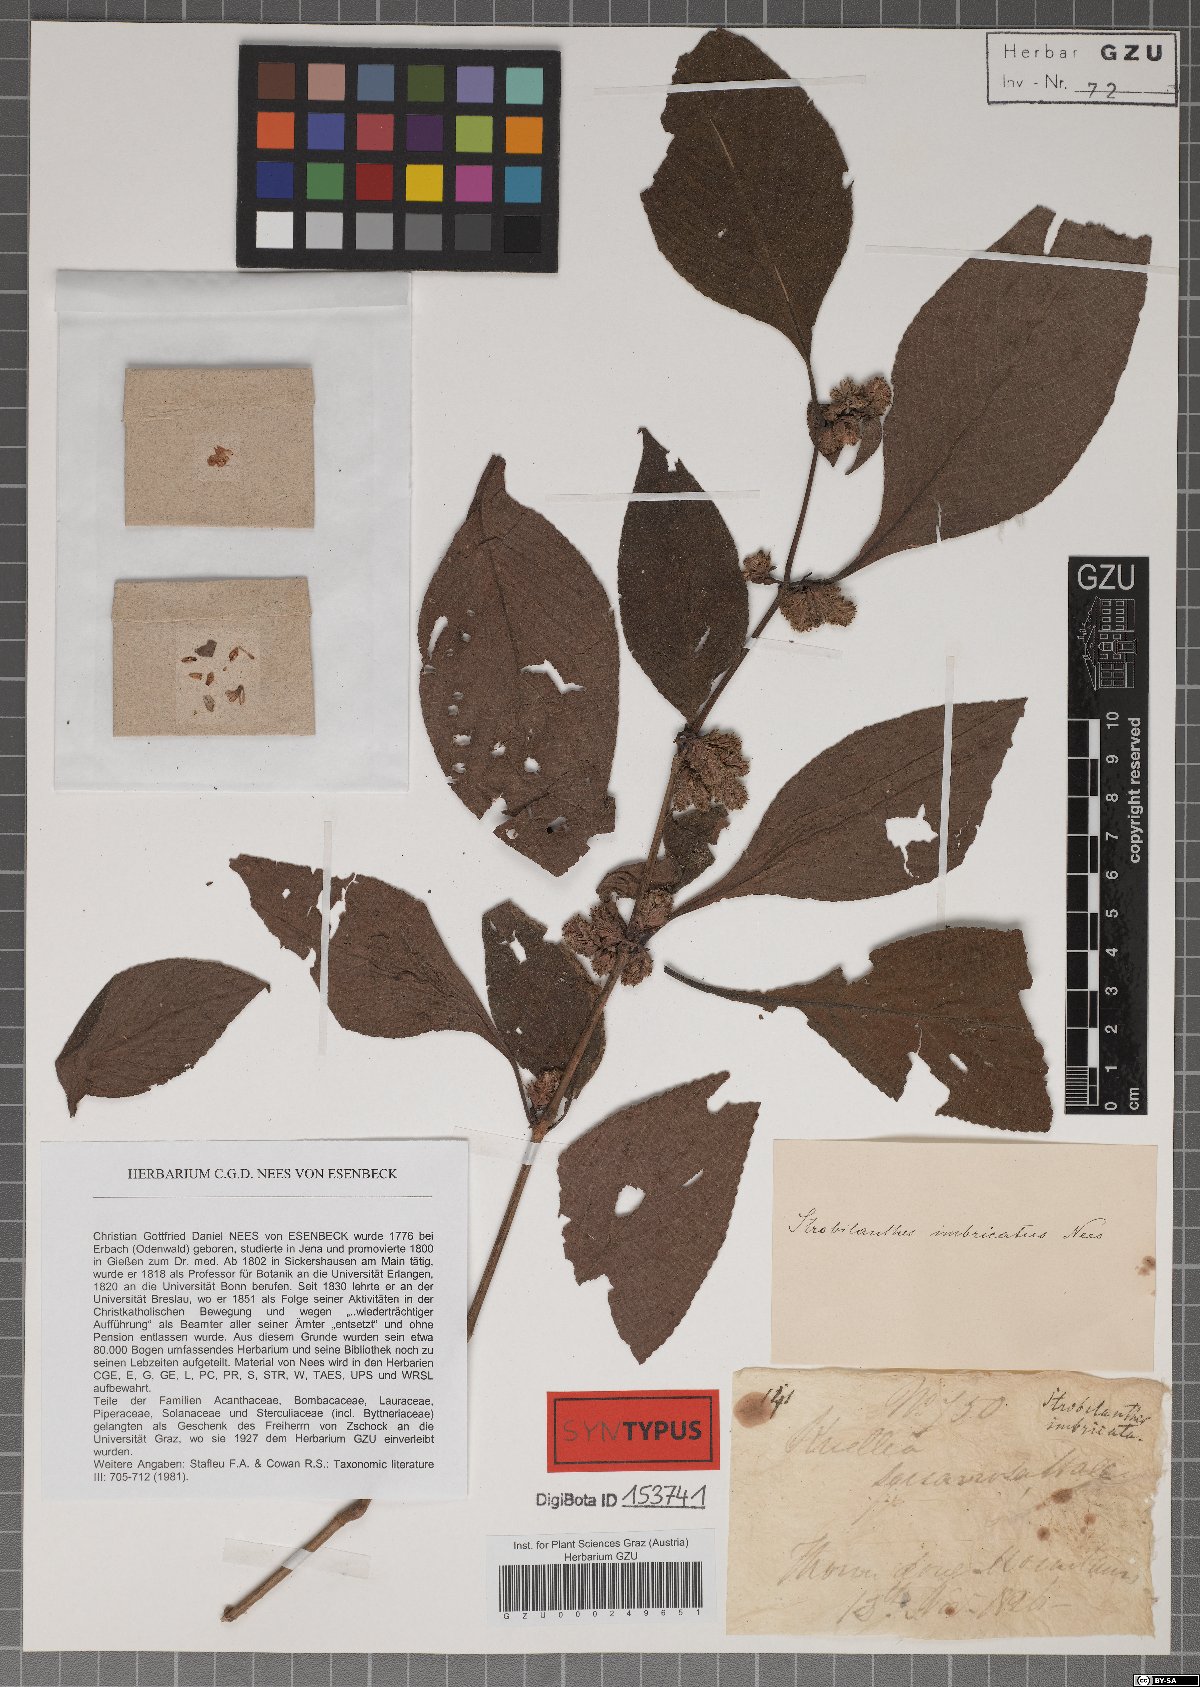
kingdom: Plantae
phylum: Tracheophyta
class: Magnoliopsida
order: Lamiales
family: Acanthaceae
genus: Strobilanthes
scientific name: Strobilanthes imbricata
